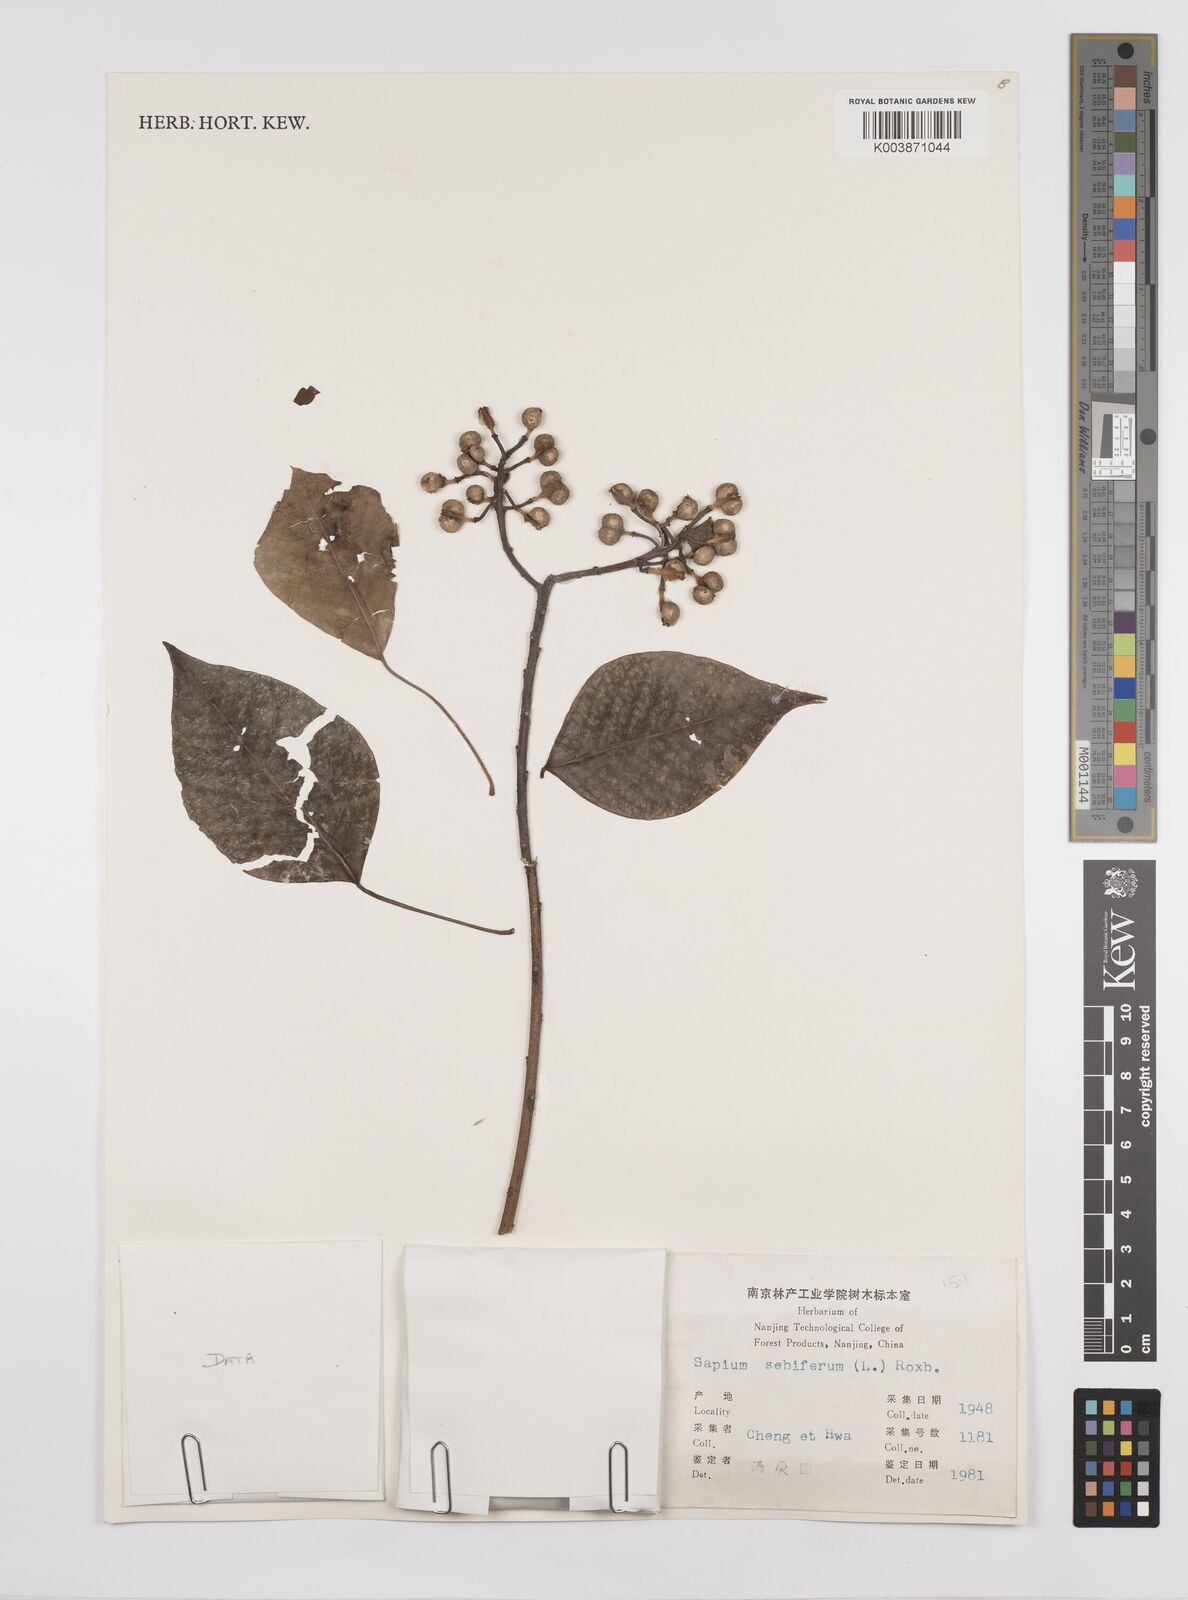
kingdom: Plantae
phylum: Tracheophyta
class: Magnoliopsida
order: Malpighiales
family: Euphorbiaceae
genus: Triadica
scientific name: Triadica sebifera
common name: Chinese tallow
